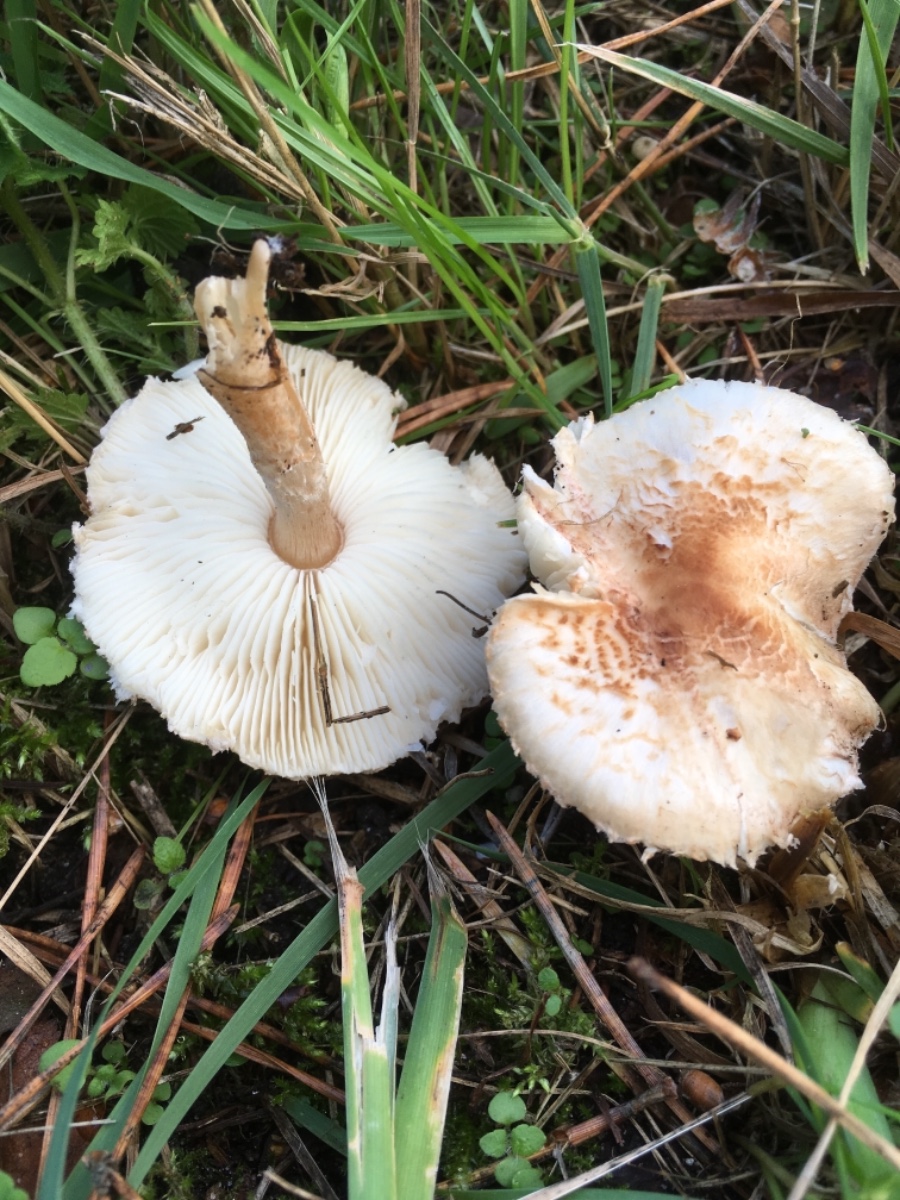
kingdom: Fungi
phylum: Basidiomycota
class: Agaricomycetes
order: Agaricales
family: Agaricaceae
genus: Lepiota
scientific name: Lepiota cristata
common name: stinkende parasolhat
